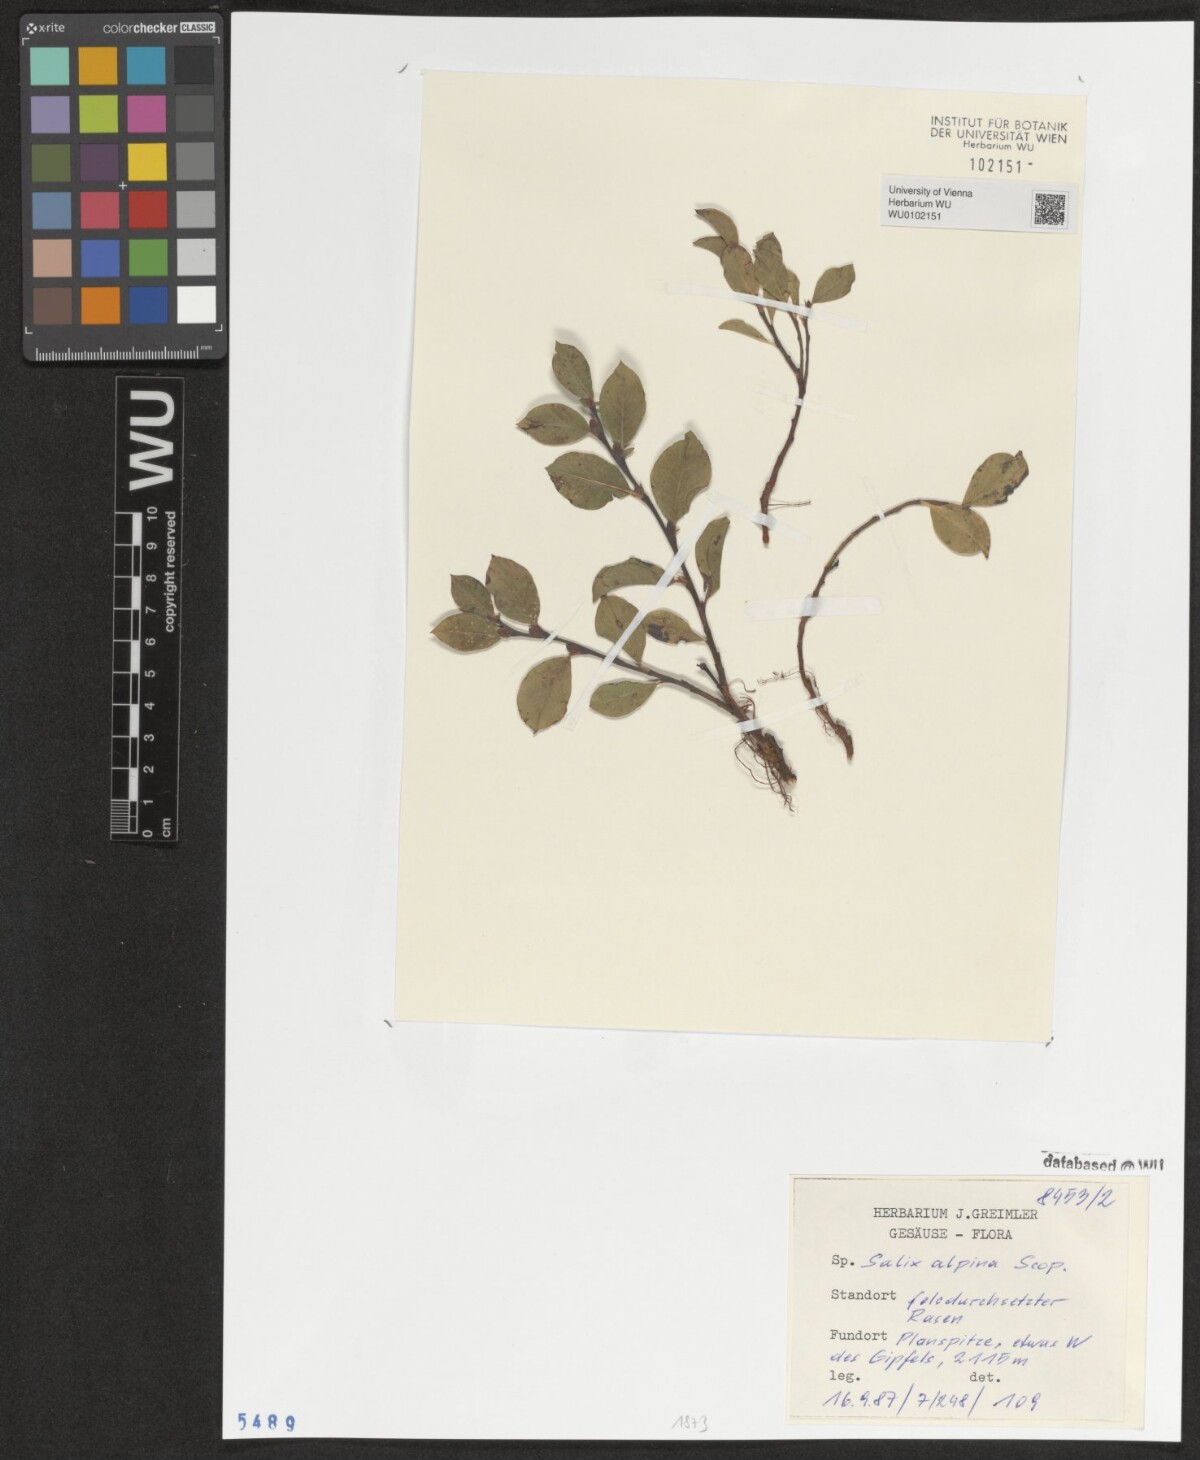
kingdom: Plantae
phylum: Tracheophyta
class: Magnoliopsida
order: Malpighiales
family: Salicaceae
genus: Salix
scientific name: Salix alpina
